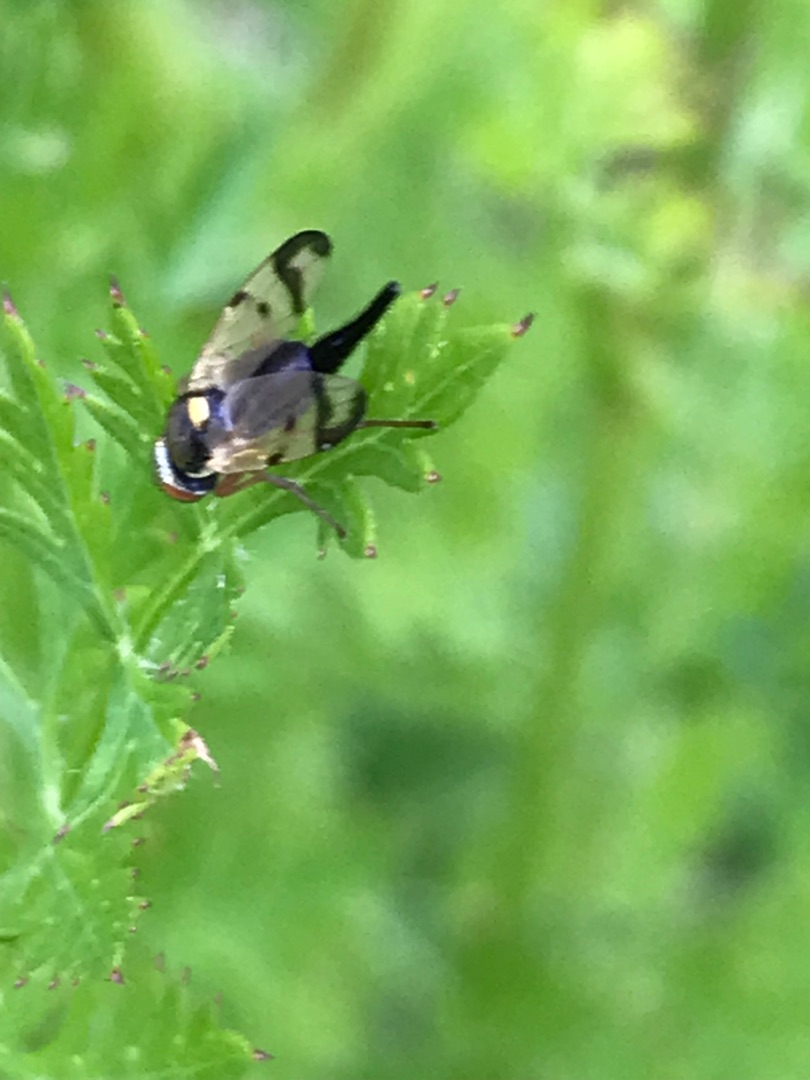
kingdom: Animalia
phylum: Arthropoda
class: Insecta
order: Diptera
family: Tephritidae
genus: Urophora
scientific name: Urophora stylata
